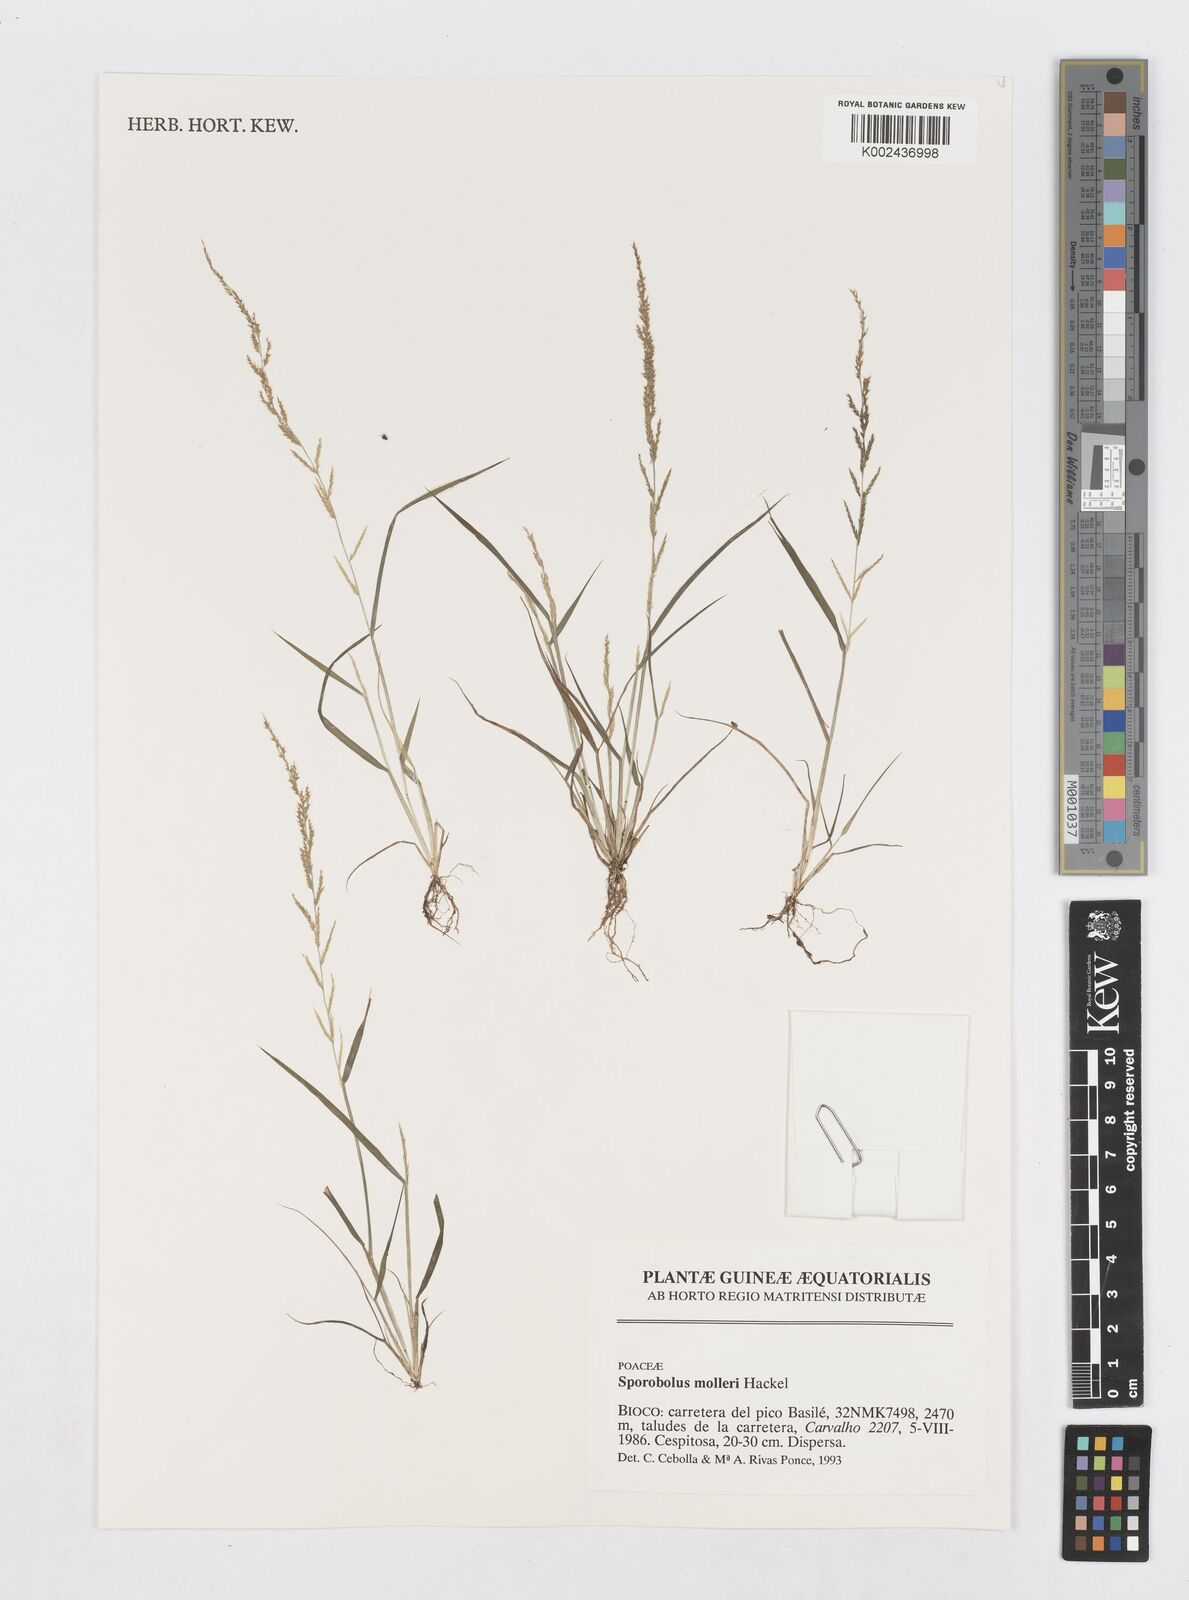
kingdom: Plantae
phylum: Tracheophyta
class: Liliopsida
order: Poales
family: Poaceae
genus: Sporobolus
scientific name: Sporobolus molleri
